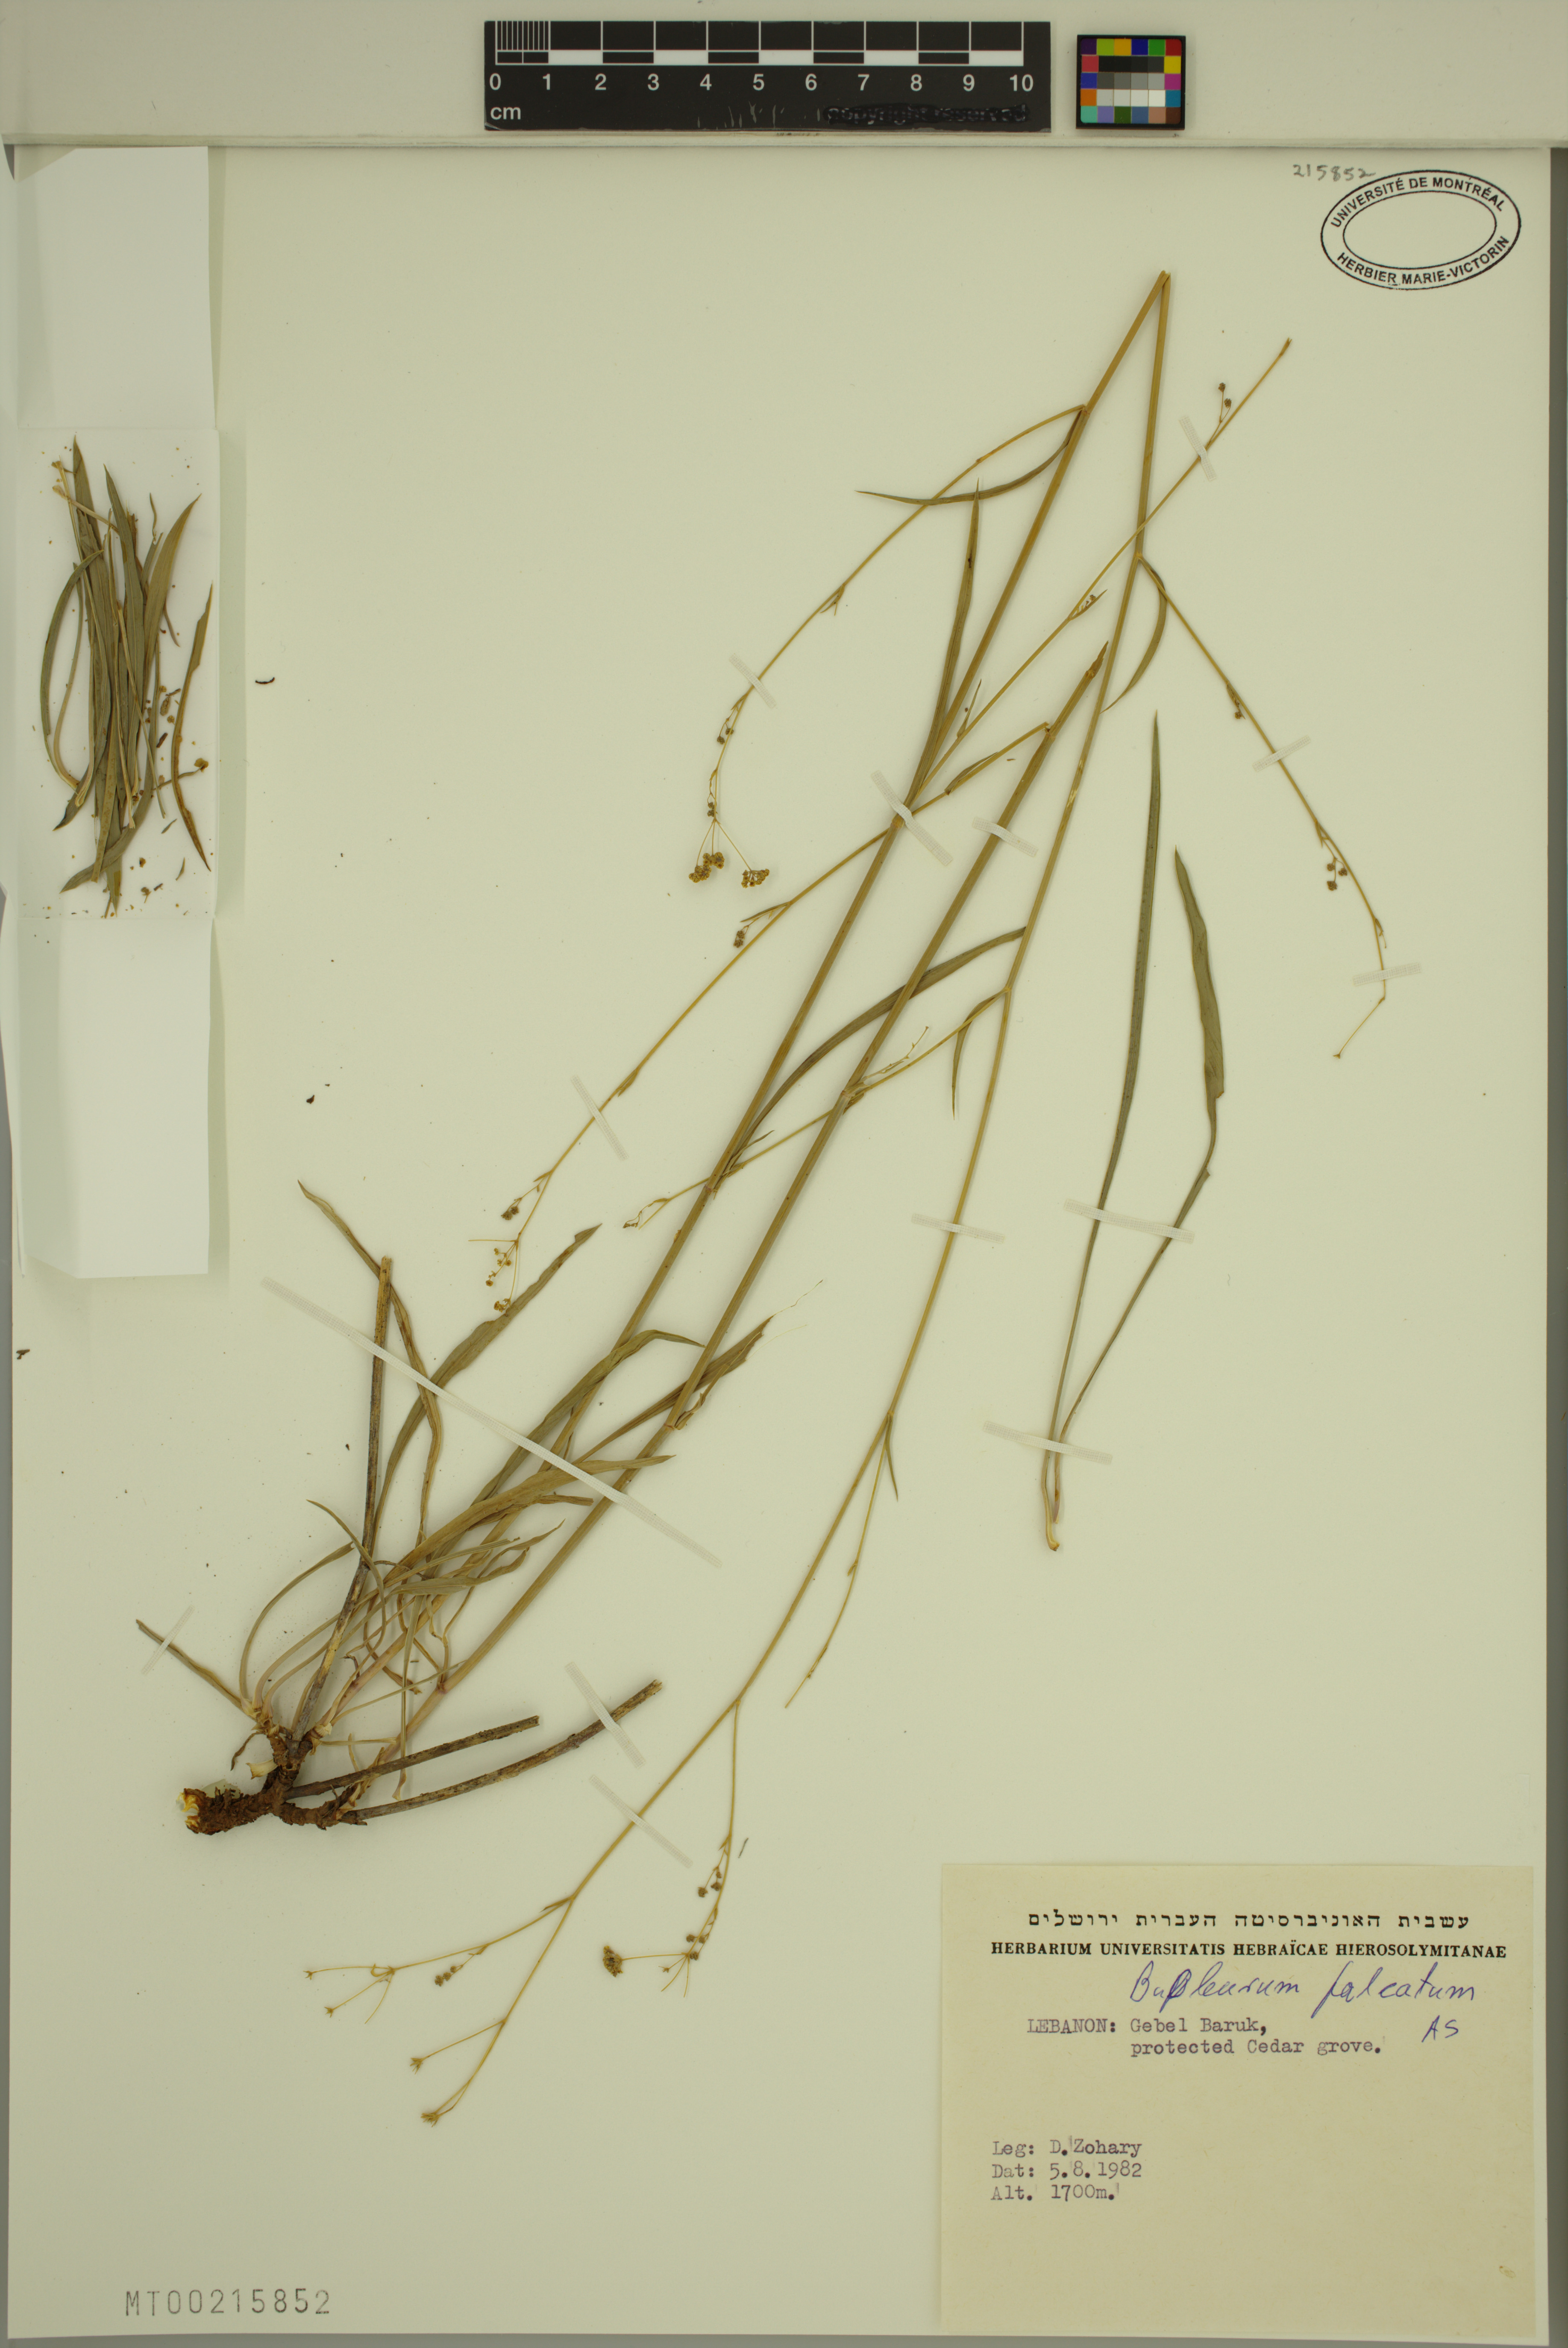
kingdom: Plantae
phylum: Tracheophyta
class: Magnoliopsida
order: Apiales
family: Apiaceae
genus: Bupleurum
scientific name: Bupleurum falcatum
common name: Sickle-leaved hare's-ear
